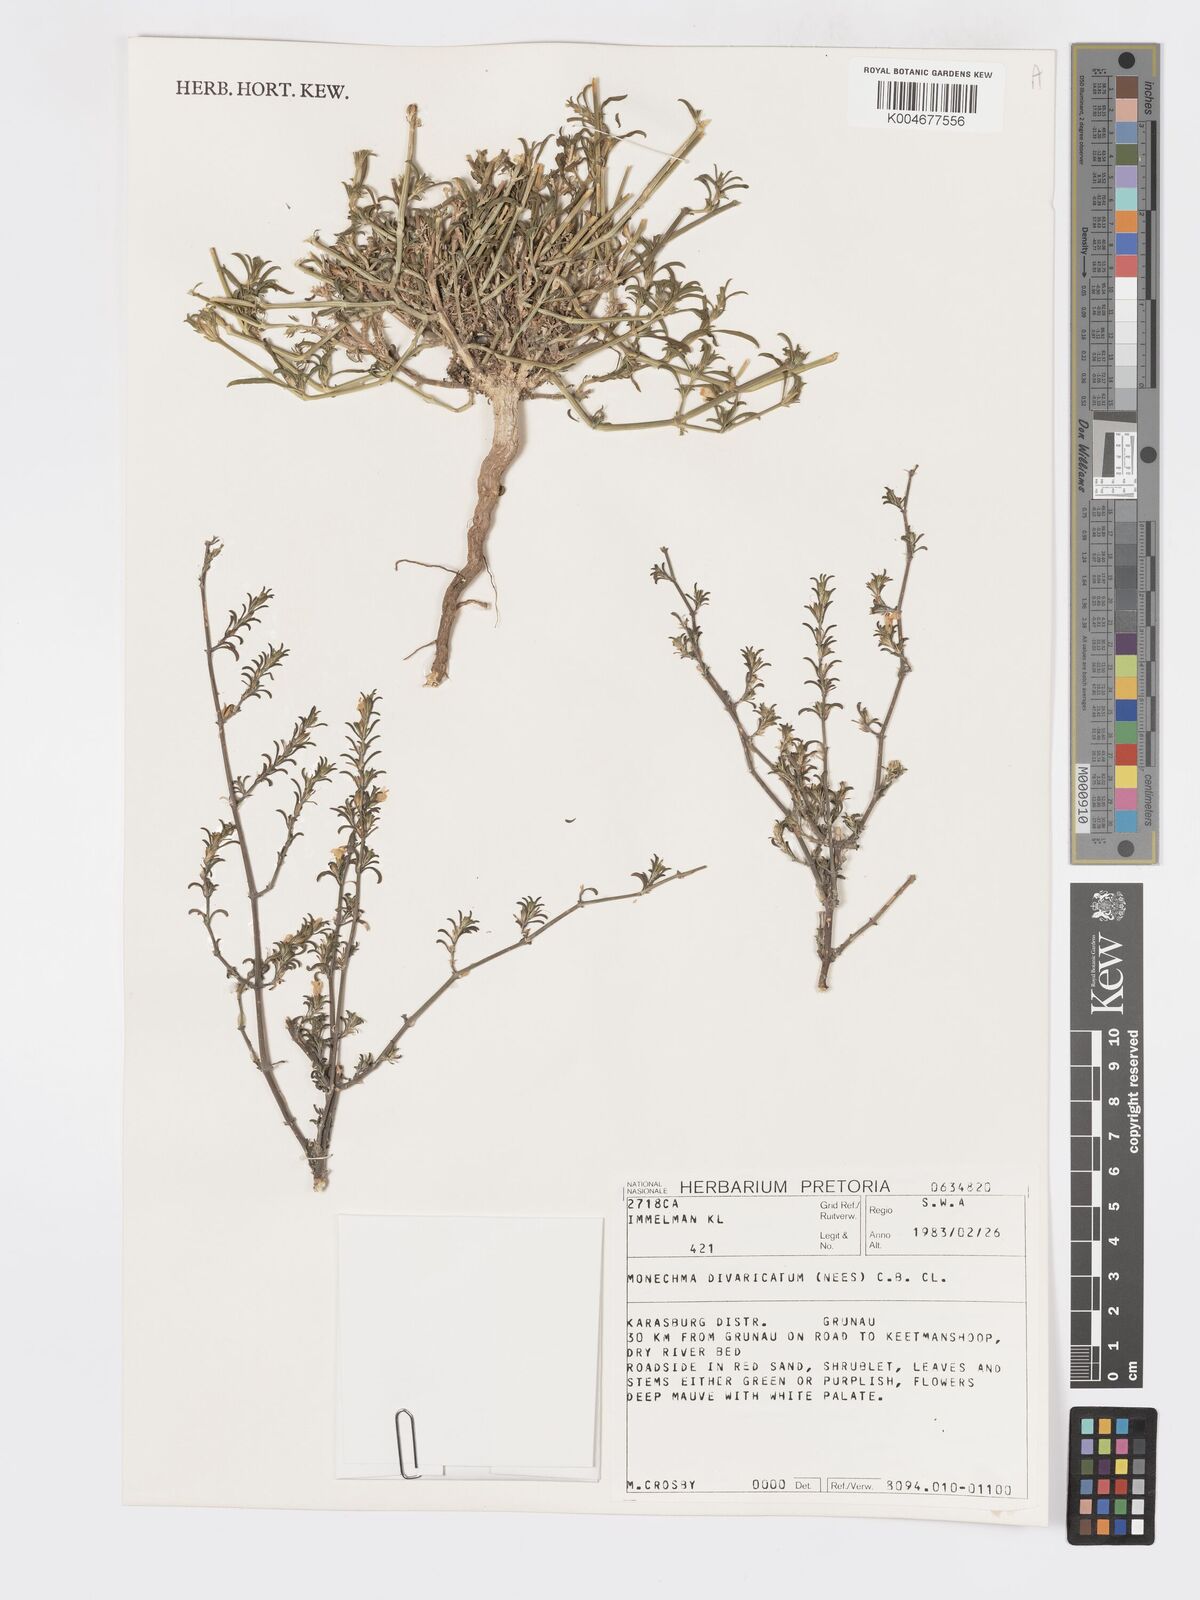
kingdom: Plantae
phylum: Tracheophyta
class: Magnoliopsida
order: Lamiales
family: Acanthaceae
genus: Pogonospermum
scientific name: Pogonospermum
